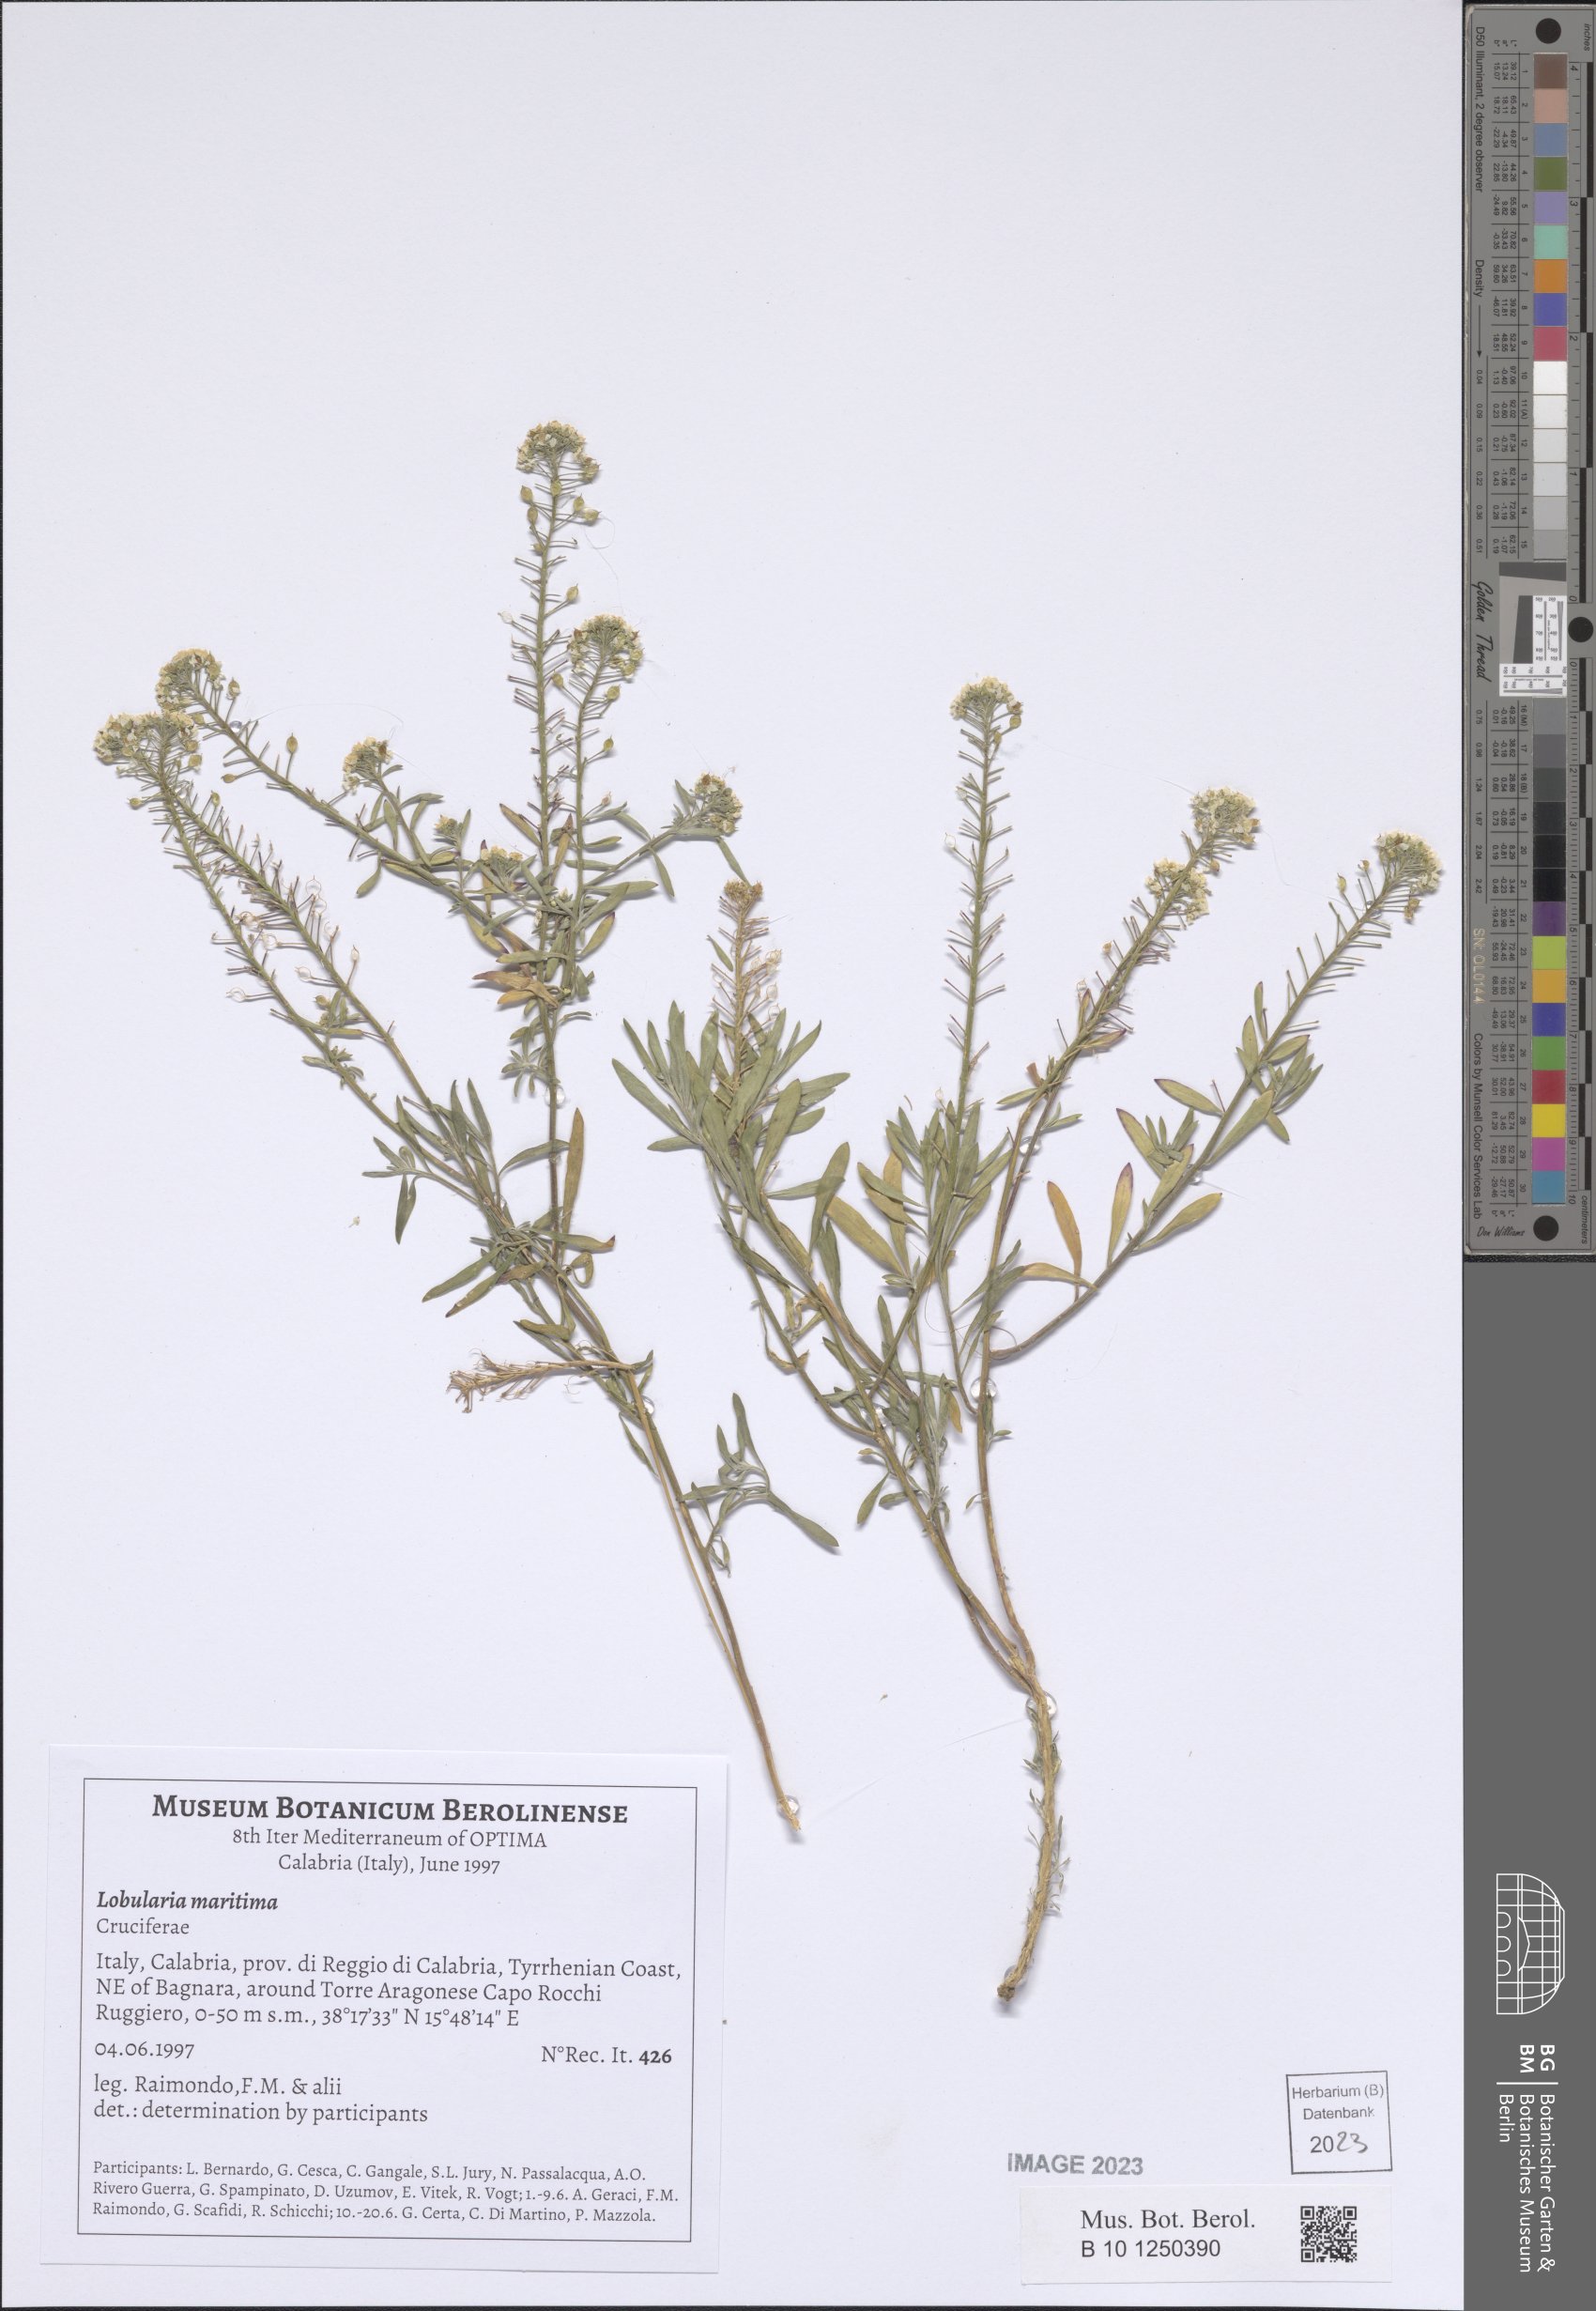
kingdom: Plantae
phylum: Tracheophyta
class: Magnoliopsida
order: Brassicales
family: Brassicaceae
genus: Lobularia
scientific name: Lobularia maritima
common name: Sweet alison
